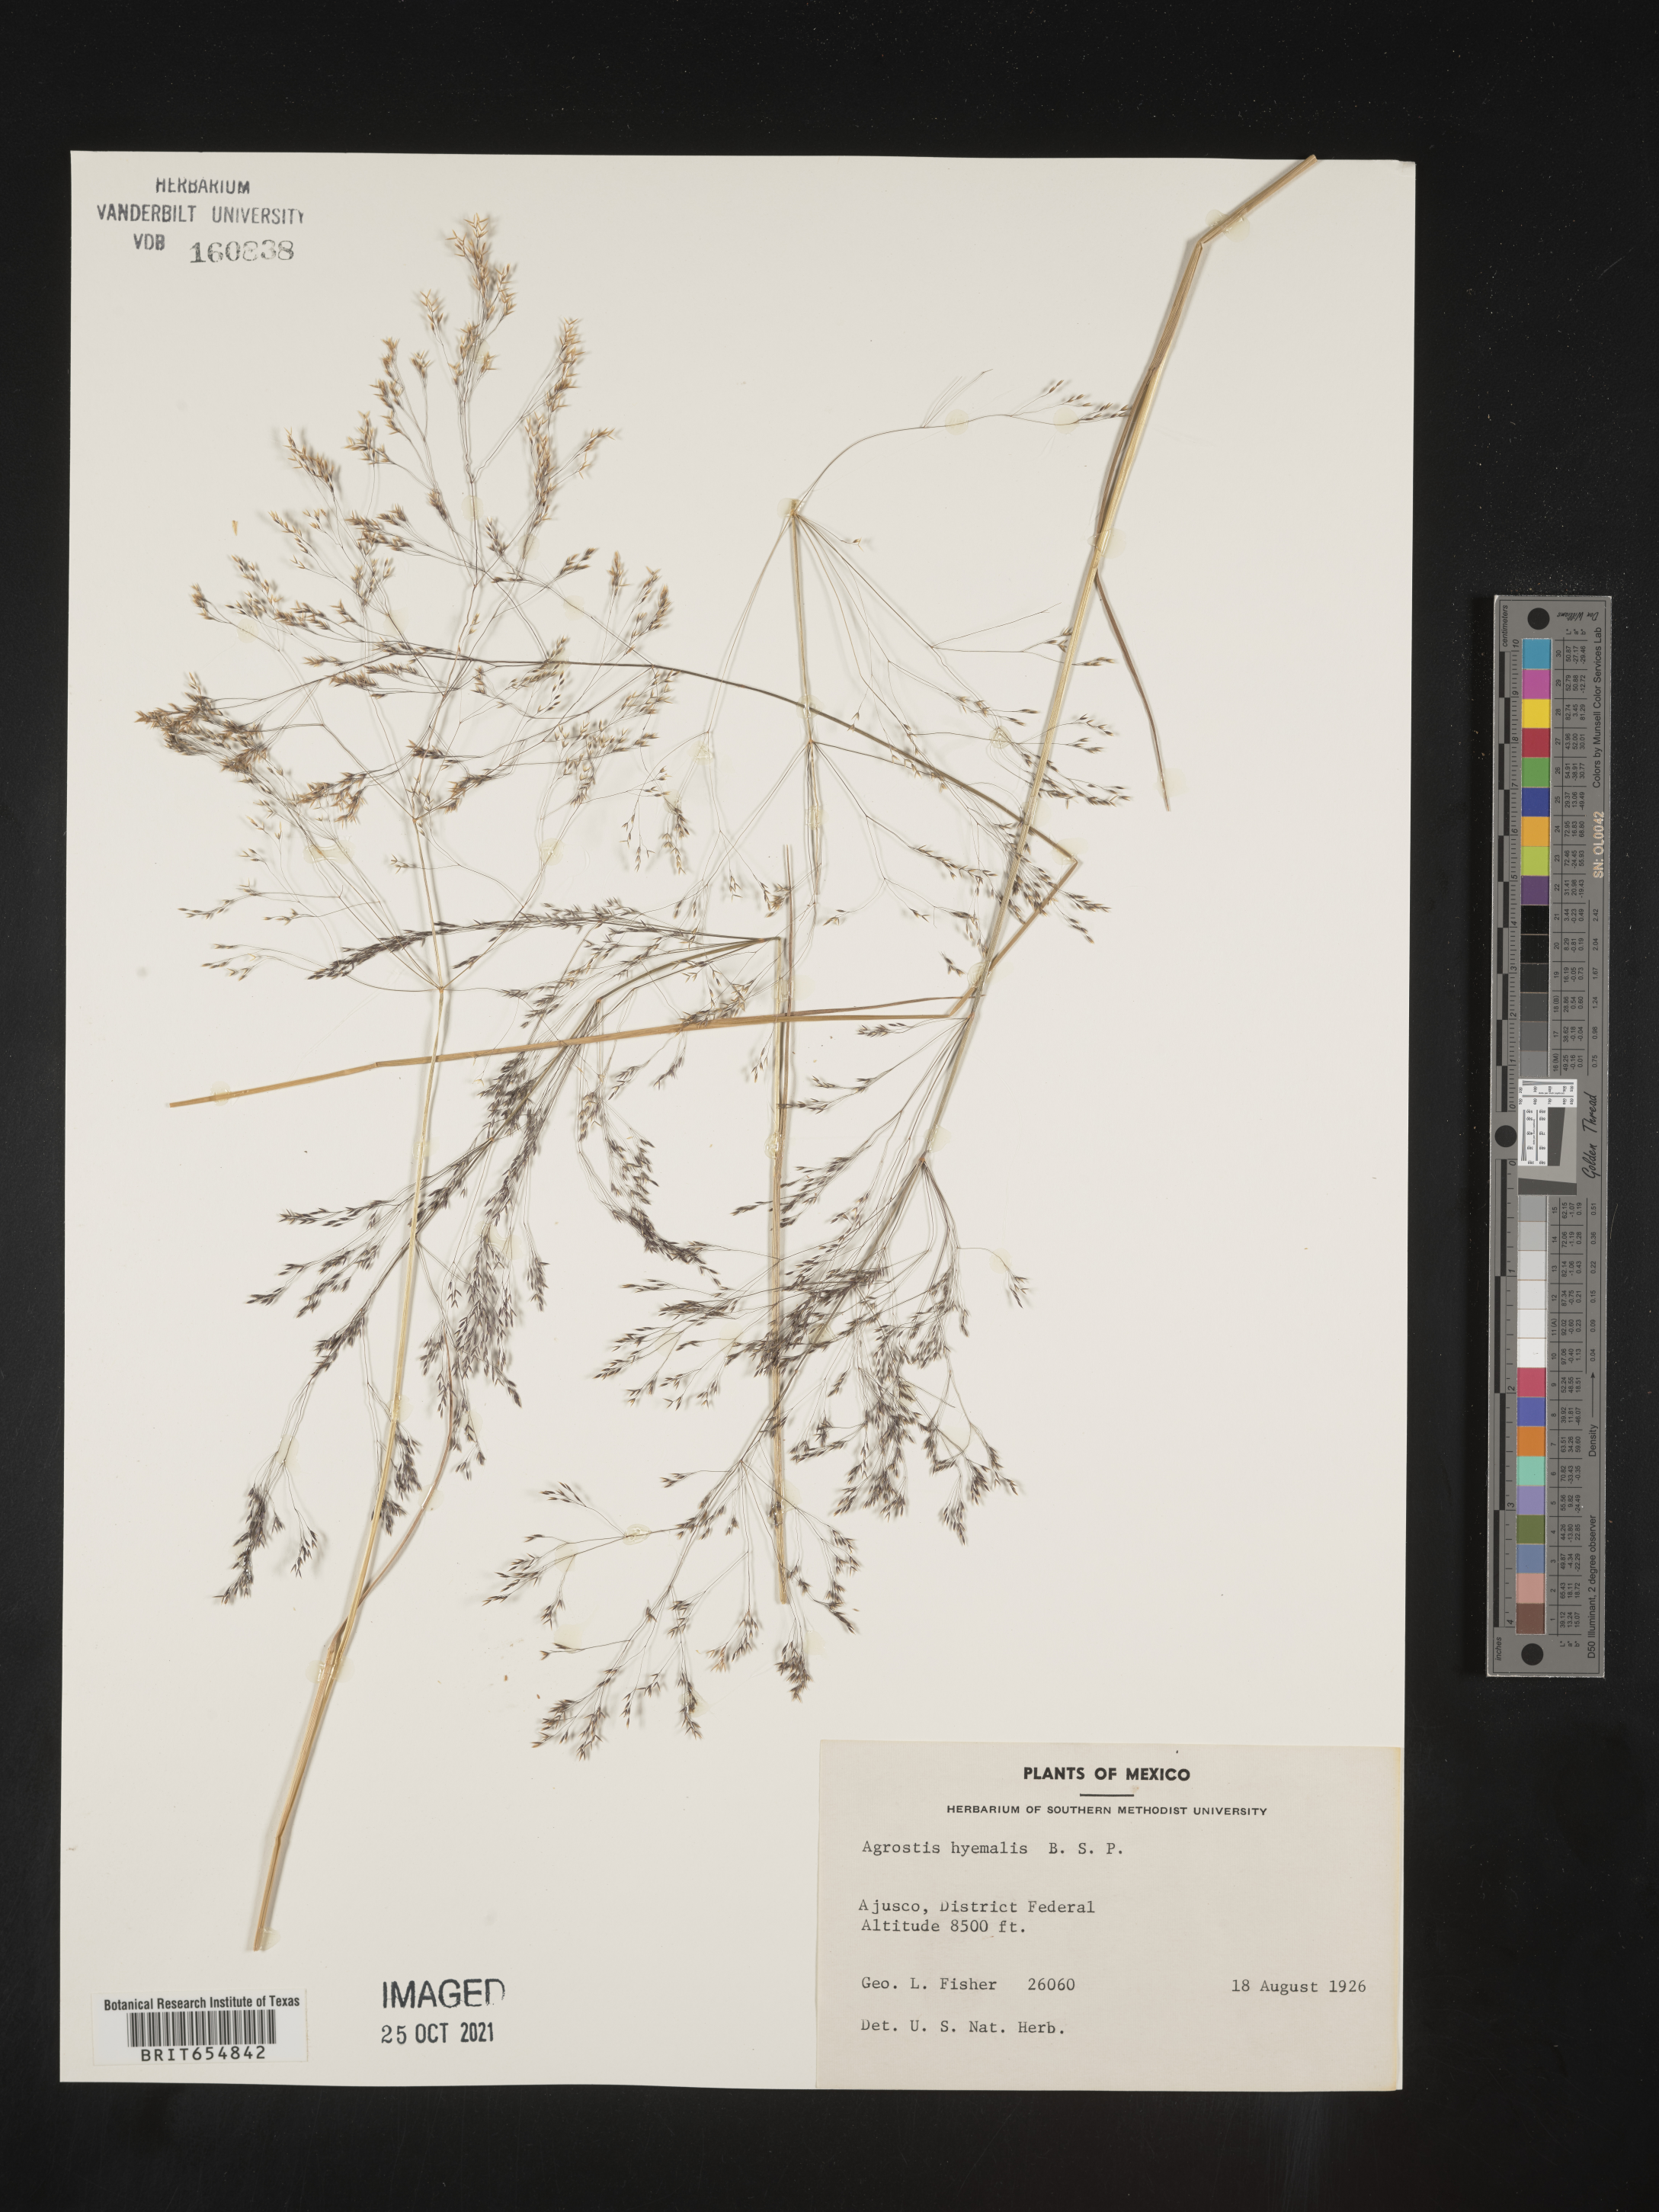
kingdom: Plantae
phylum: Tracheophyta
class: Liliopsida
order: Poales
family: Poaceae
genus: Agrostis
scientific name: Agrostis
